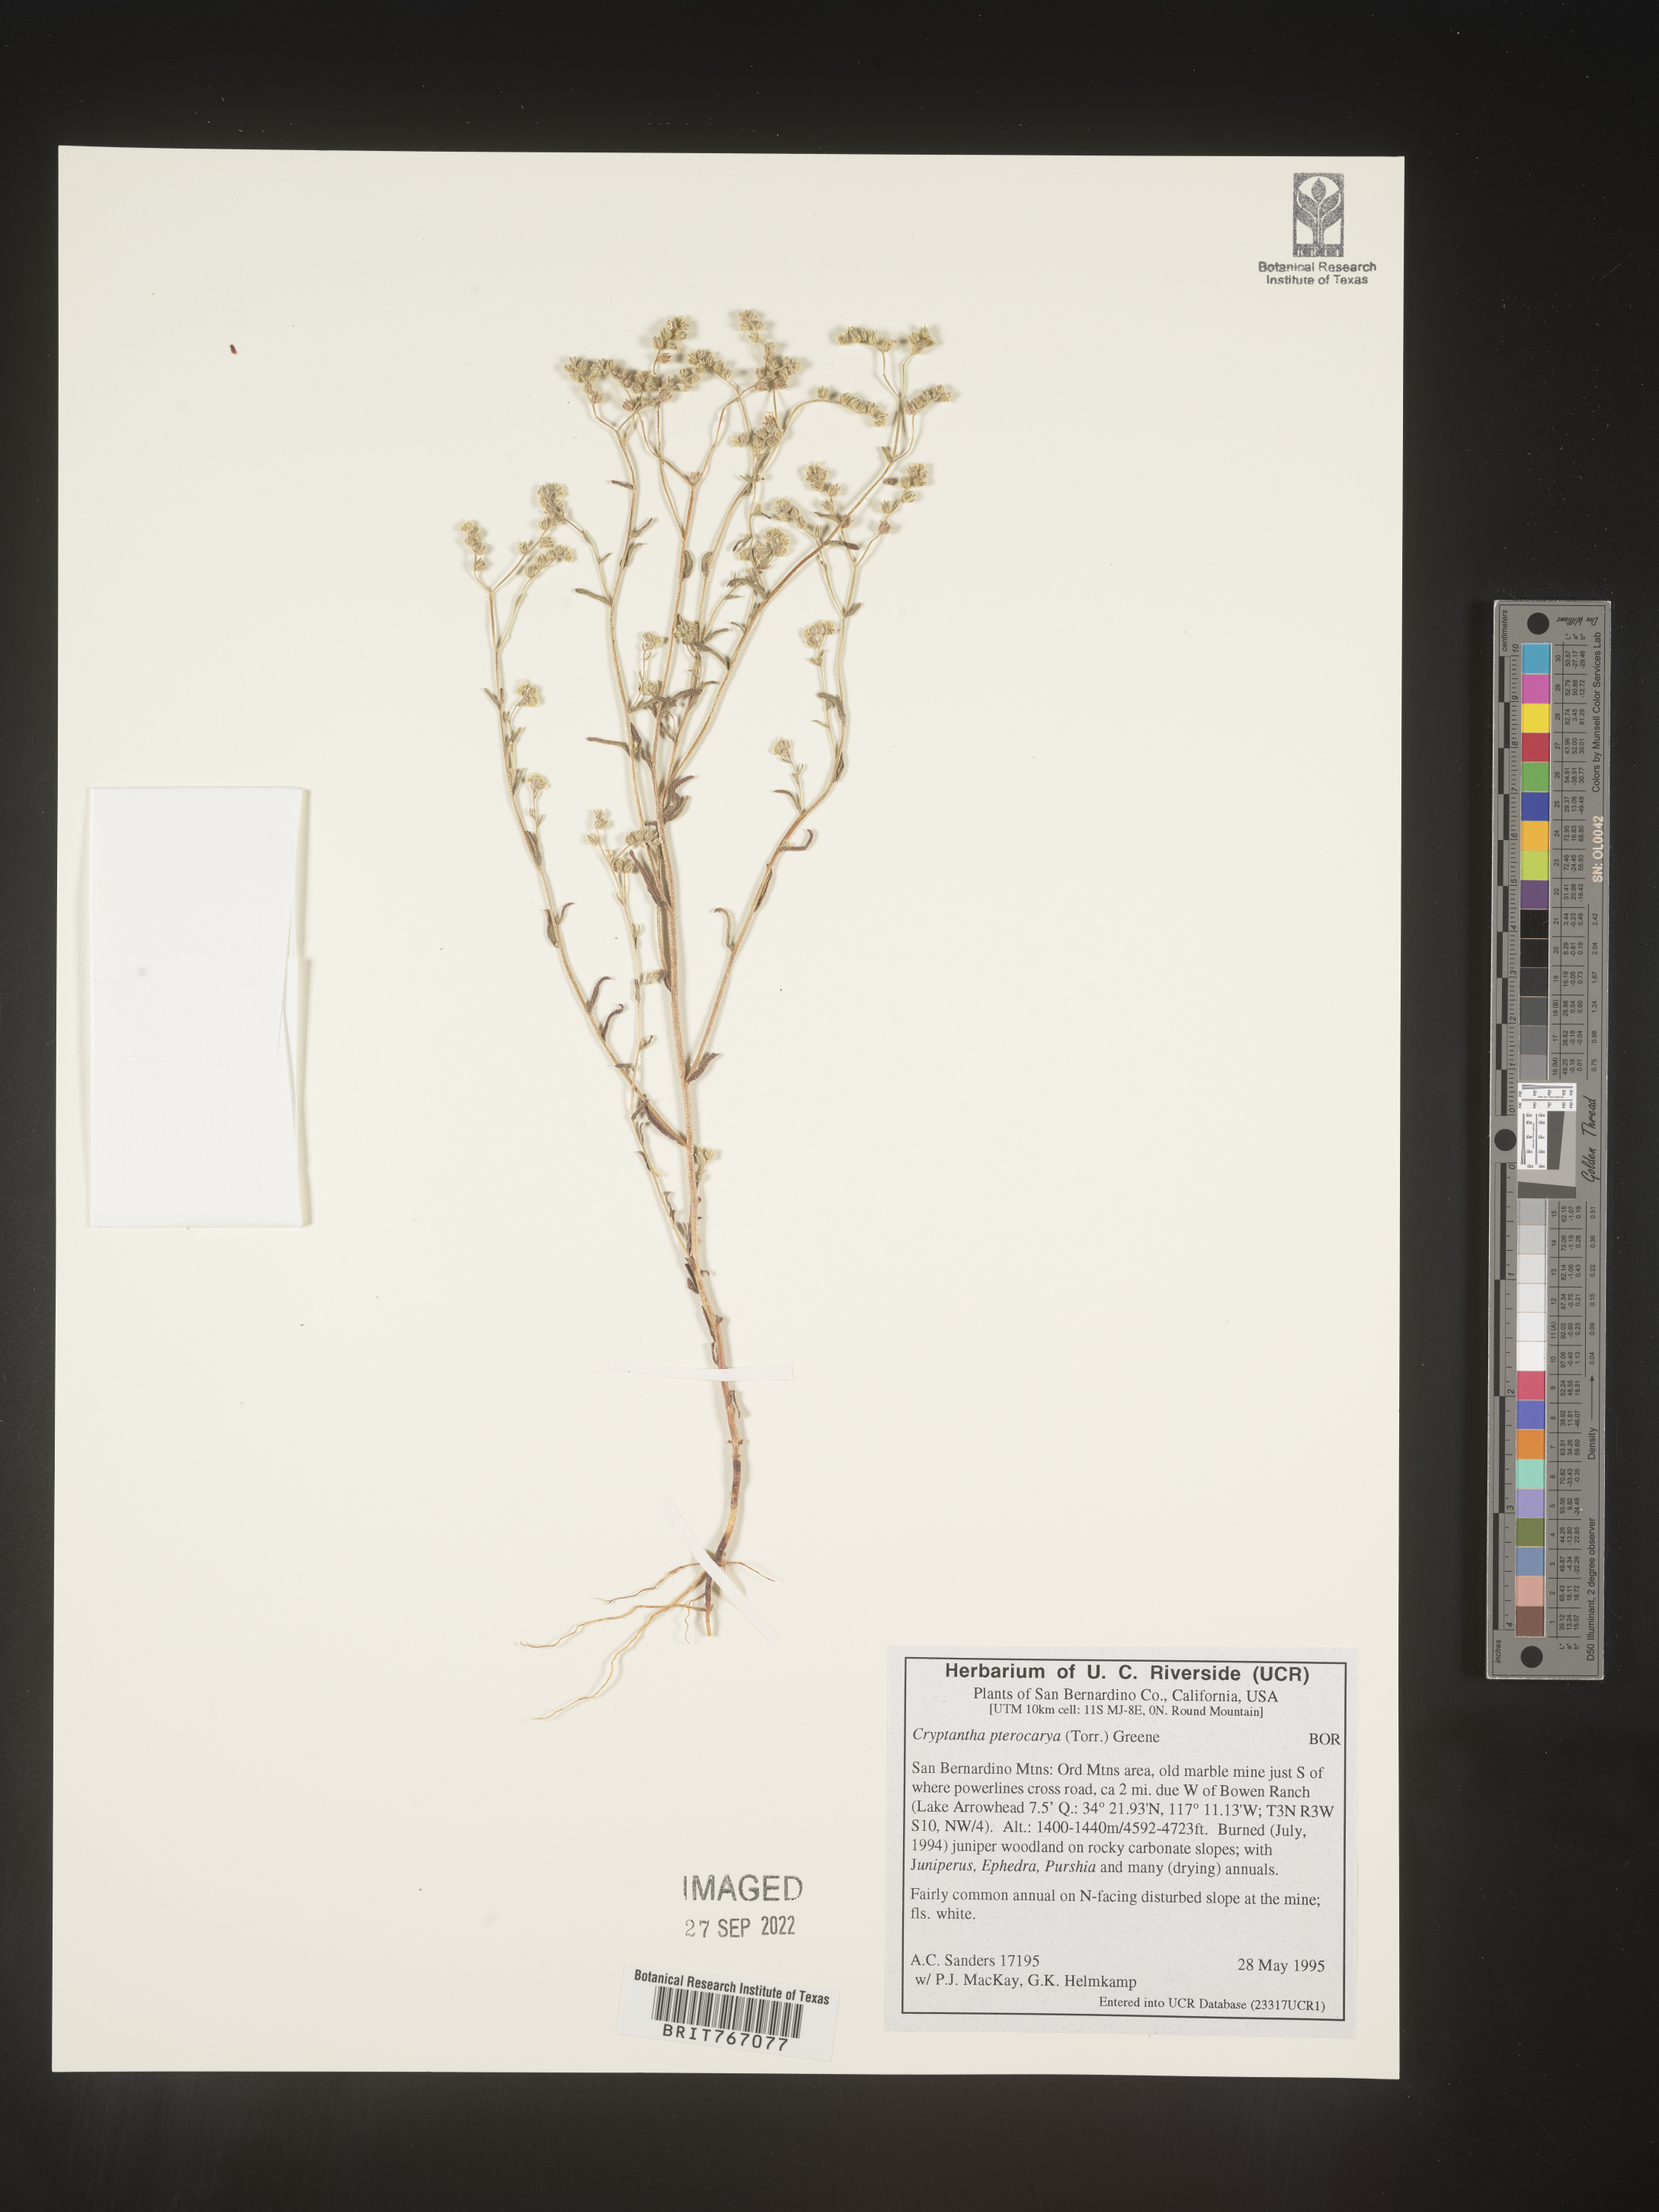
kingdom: Plantae
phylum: Tracheophyta
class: Magnoliopsida
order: Boraginales
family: Boraginaceae
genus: Cryptantha
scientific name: Cryptantha pterocarya
